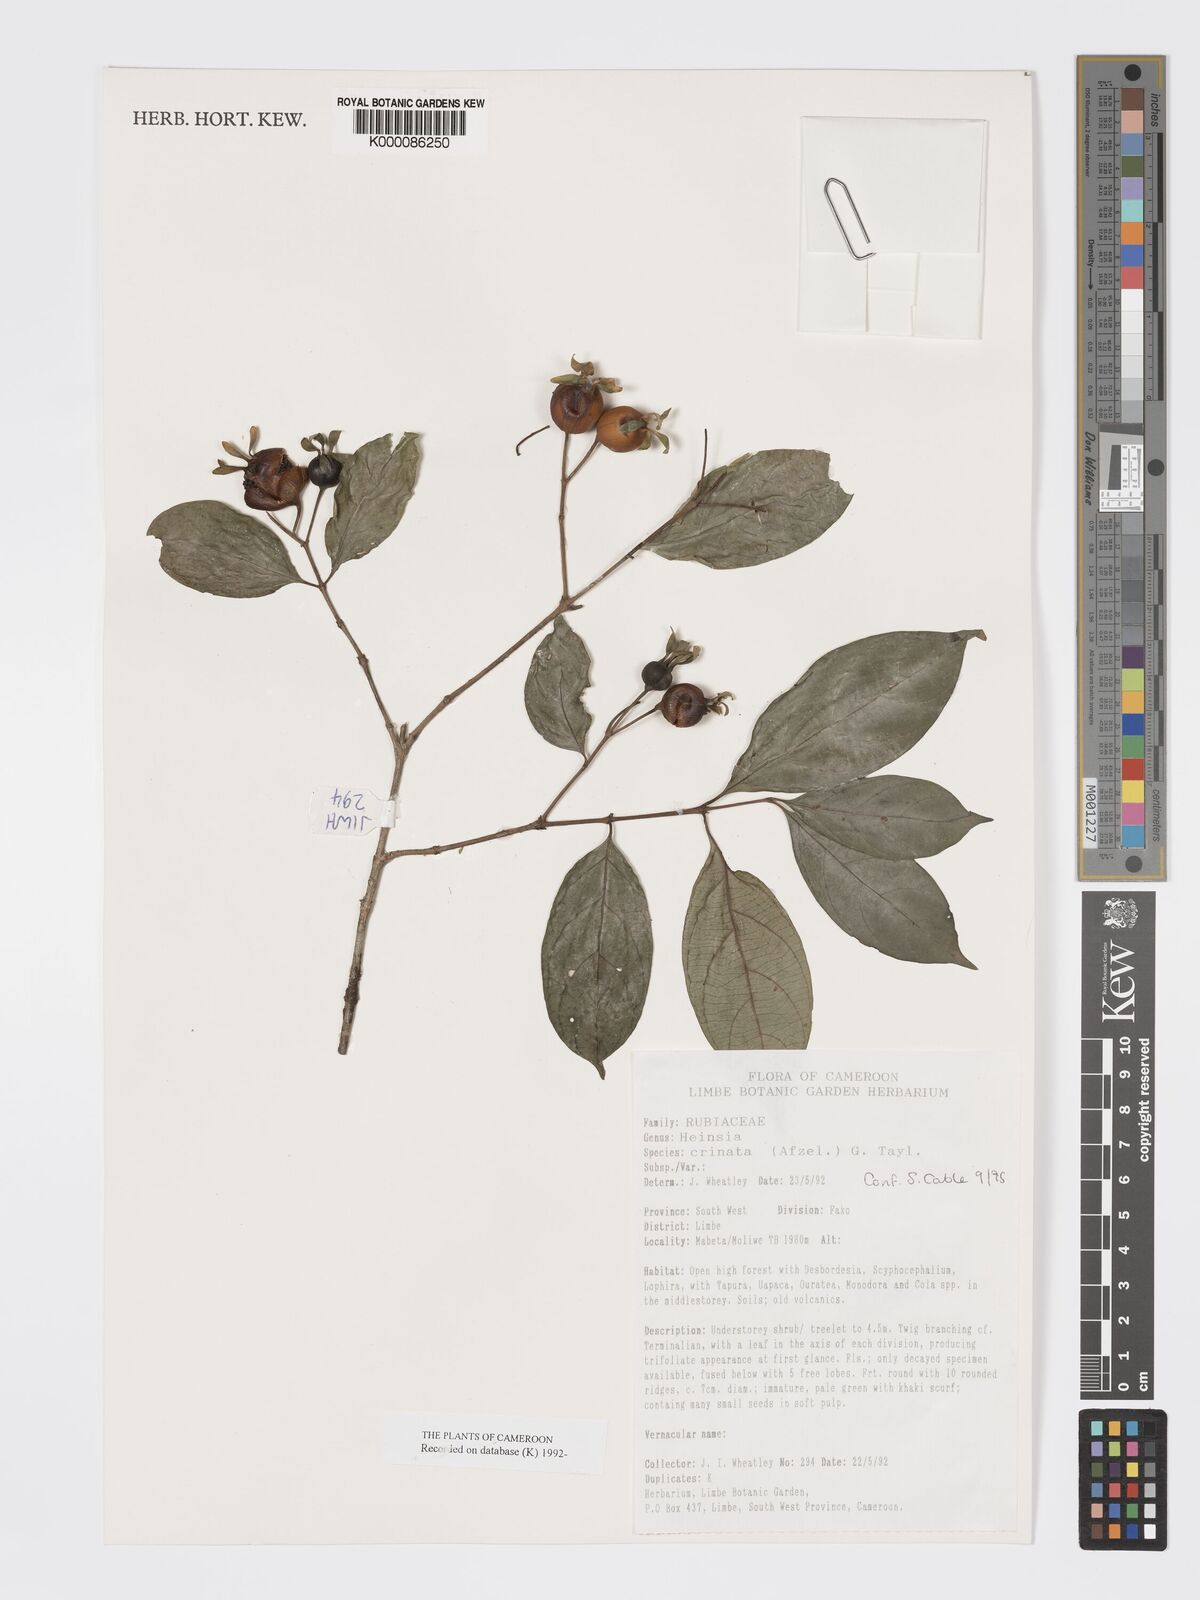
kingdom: Plantae
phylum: Tracheophyta
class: Magnoliopsida
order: Gentianales
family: Rubiaceae
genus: Heinsia
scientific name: Heinsia crinita
